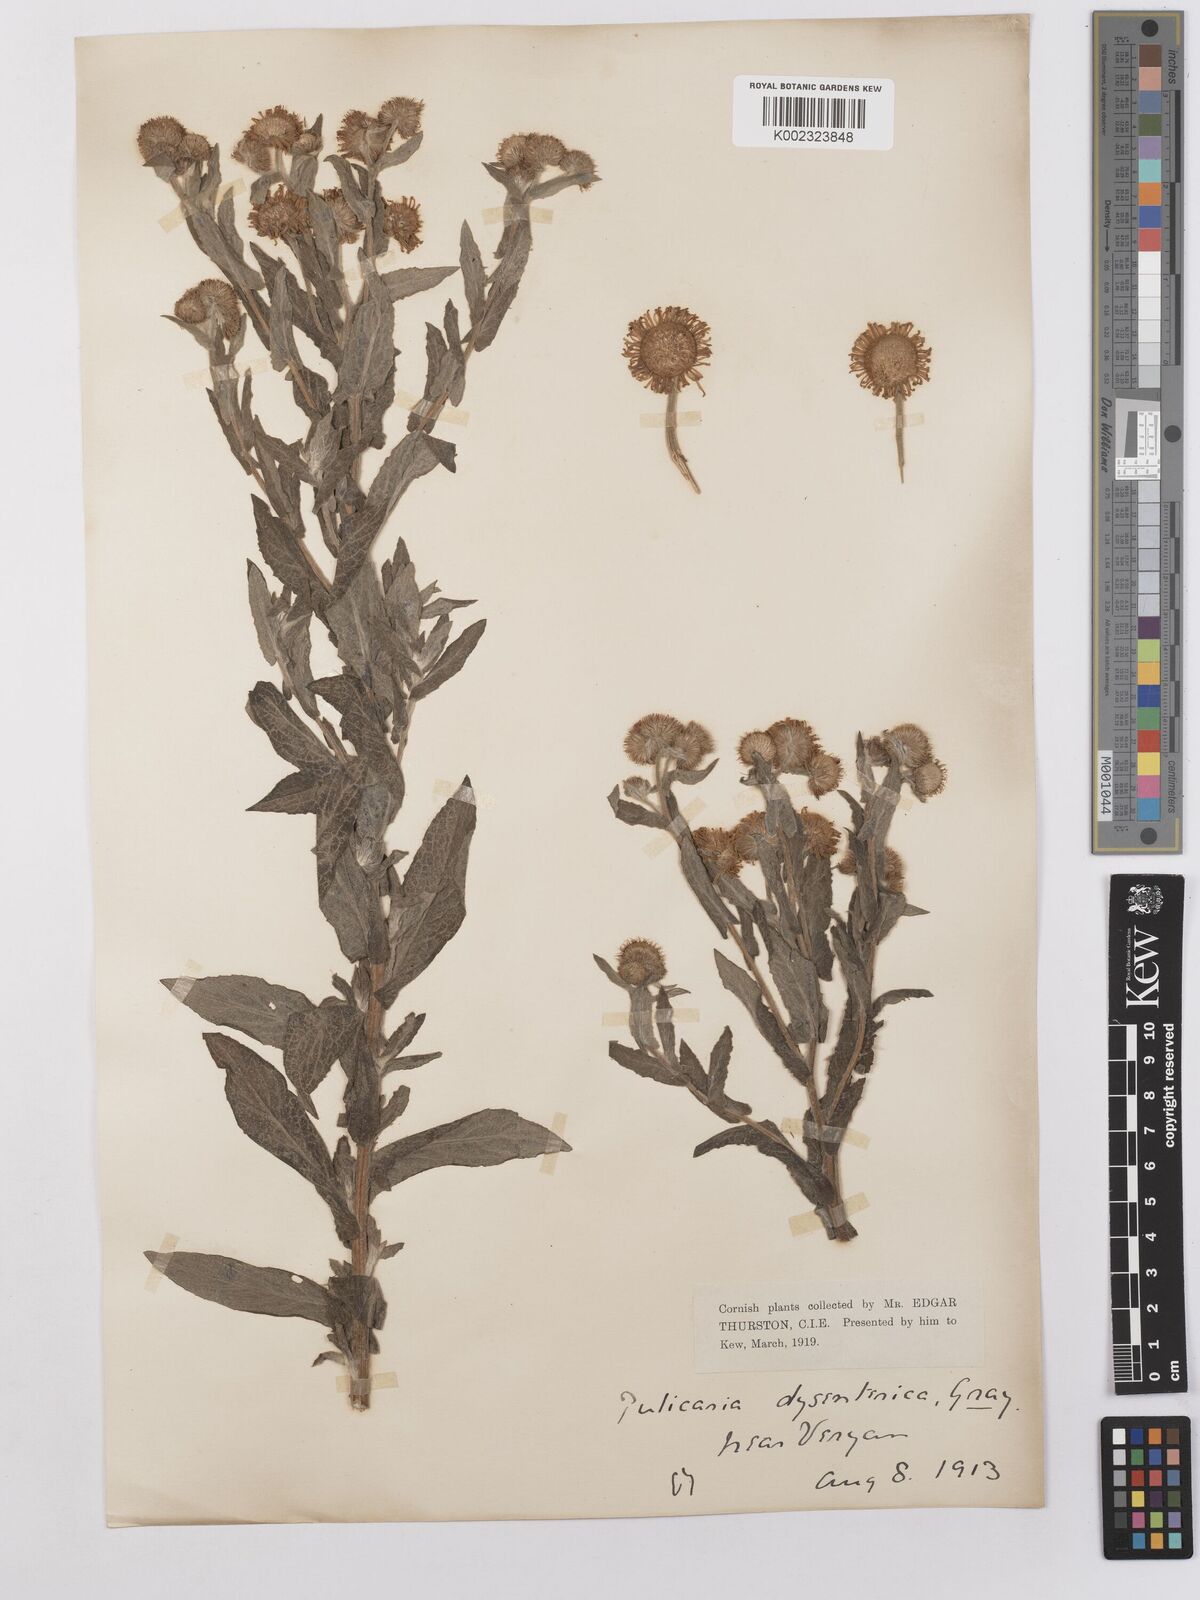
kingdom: Plantae
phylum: Tracheophyta
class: Magnoliopsida
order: Asterales
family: Asteraceae
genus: Pulicaria
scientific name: Pulicaria dysenterica
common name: Common fleabane
